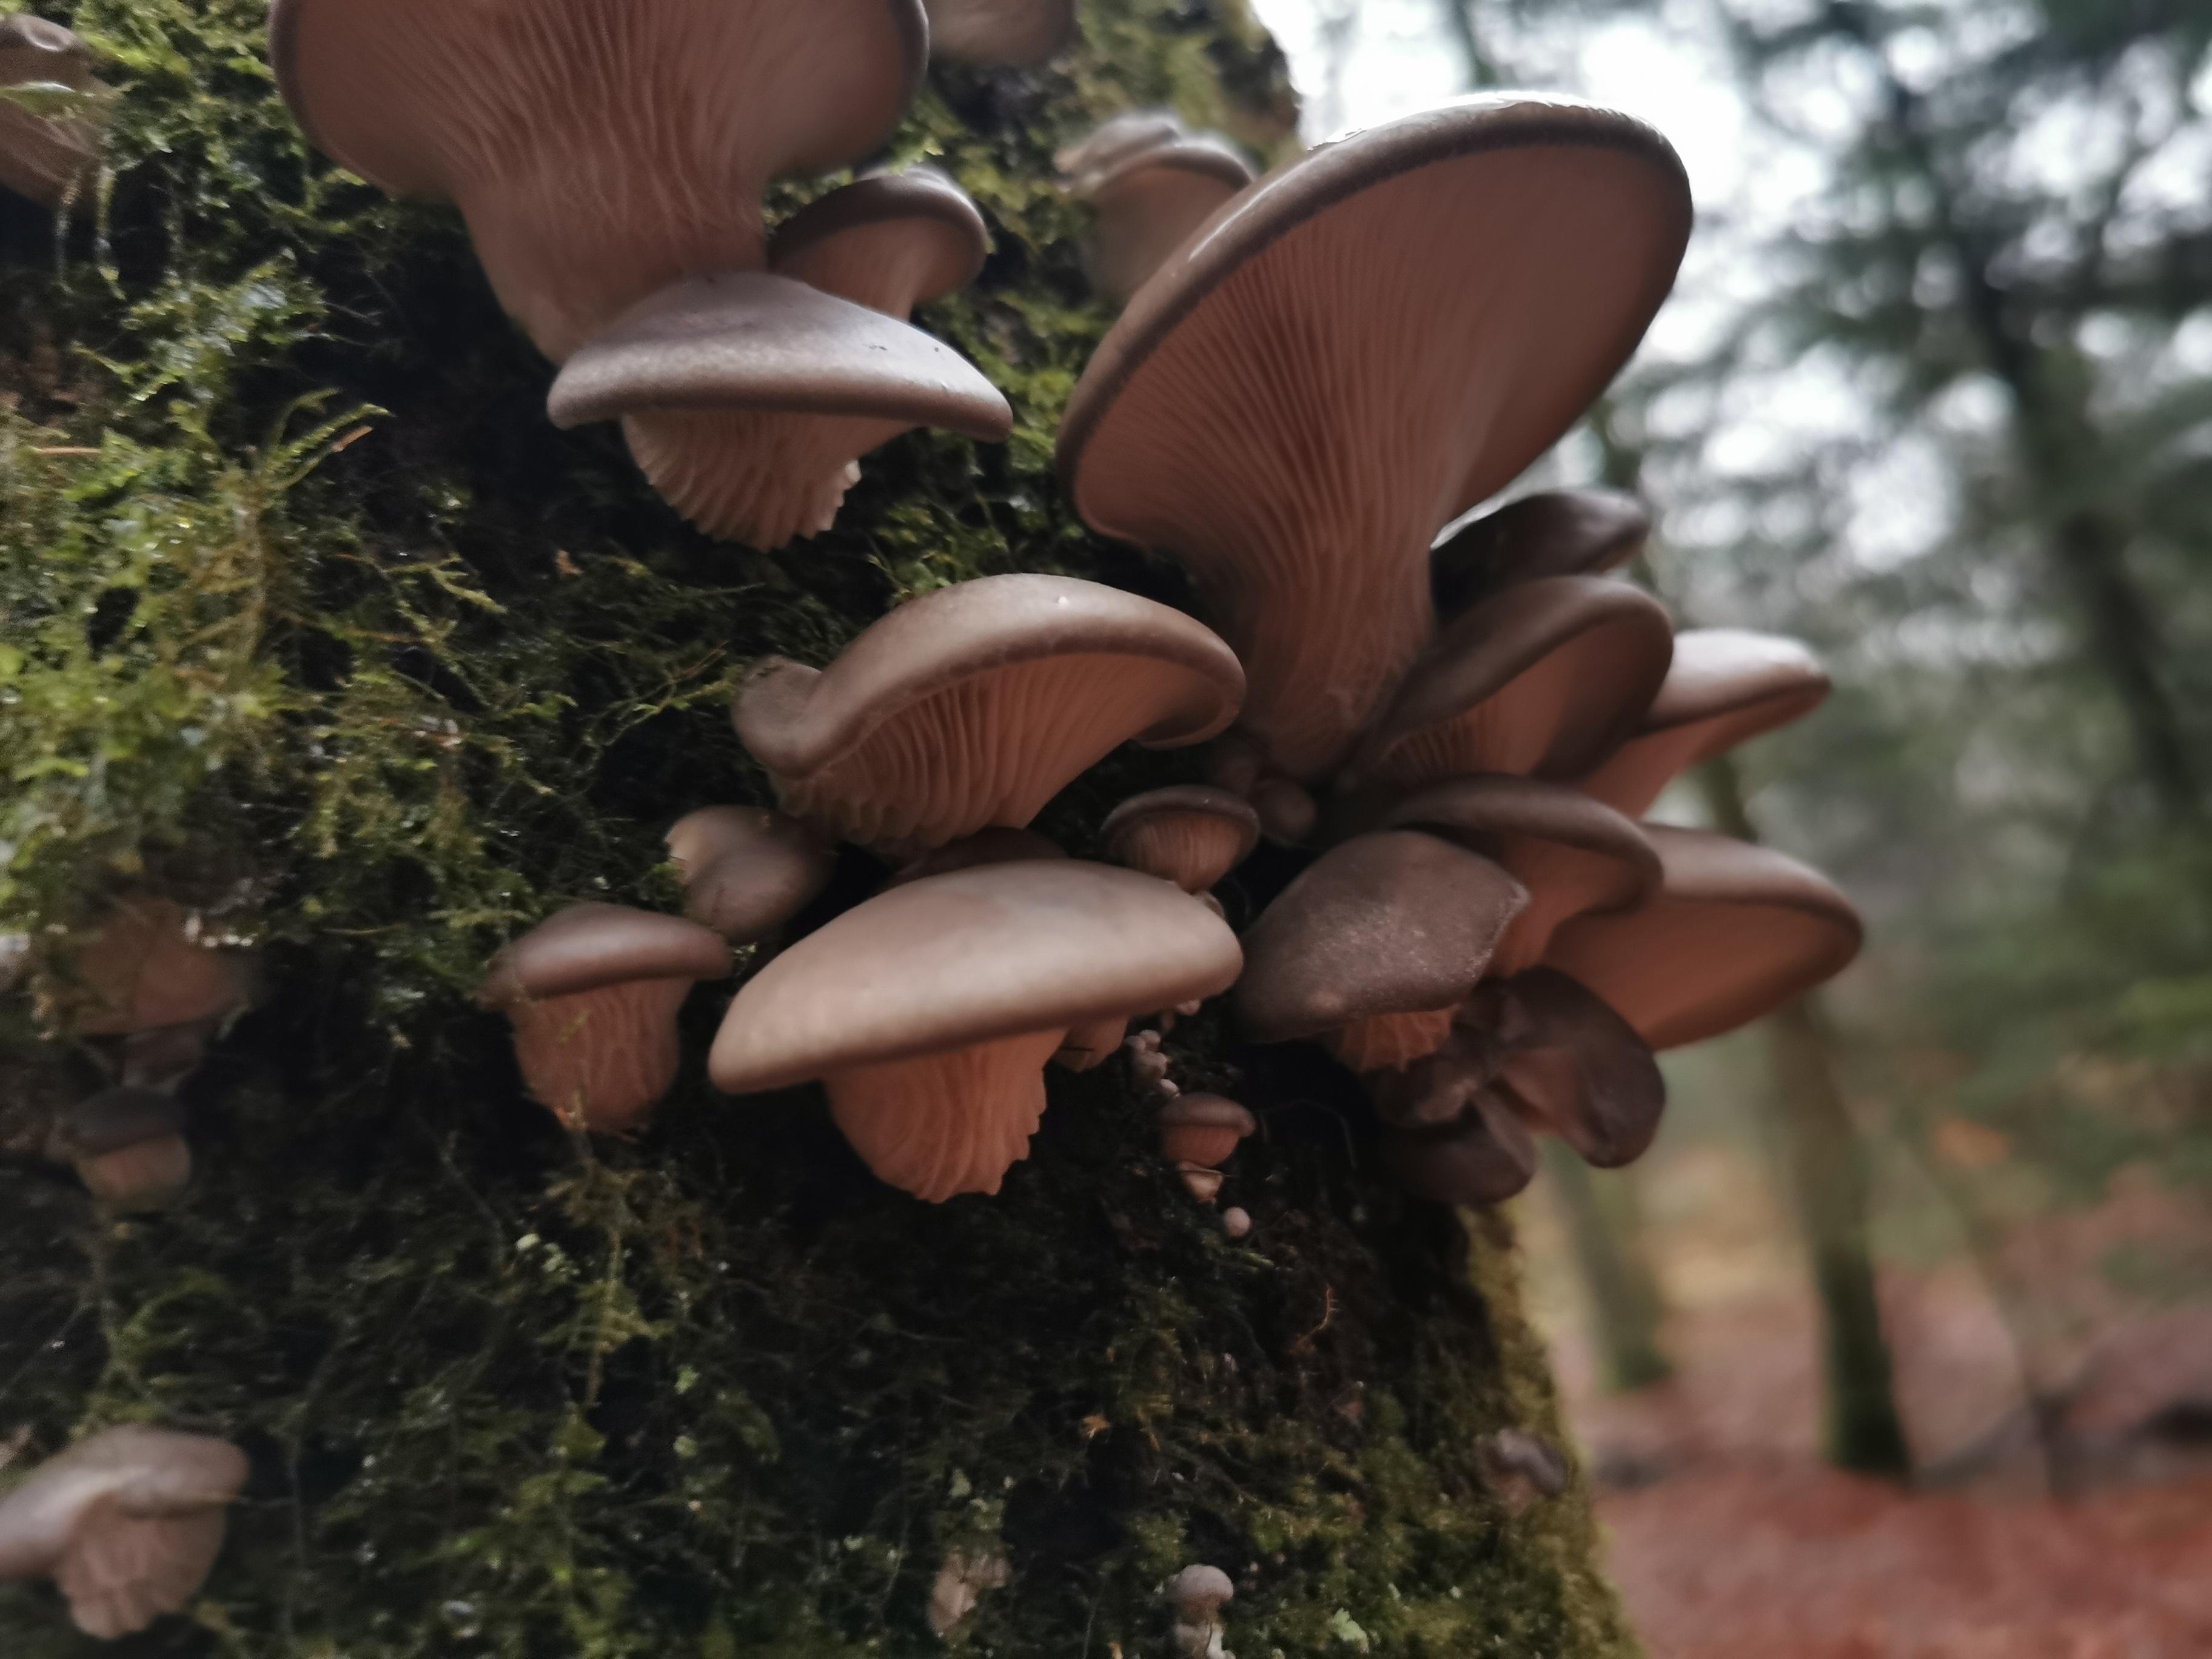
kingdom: Fungi
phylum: Basidiomycota
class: Agaricomycetes
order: Agaricales
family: Pleurotaceae
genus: Pleurotus
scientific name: Pleurotus ostreatus
